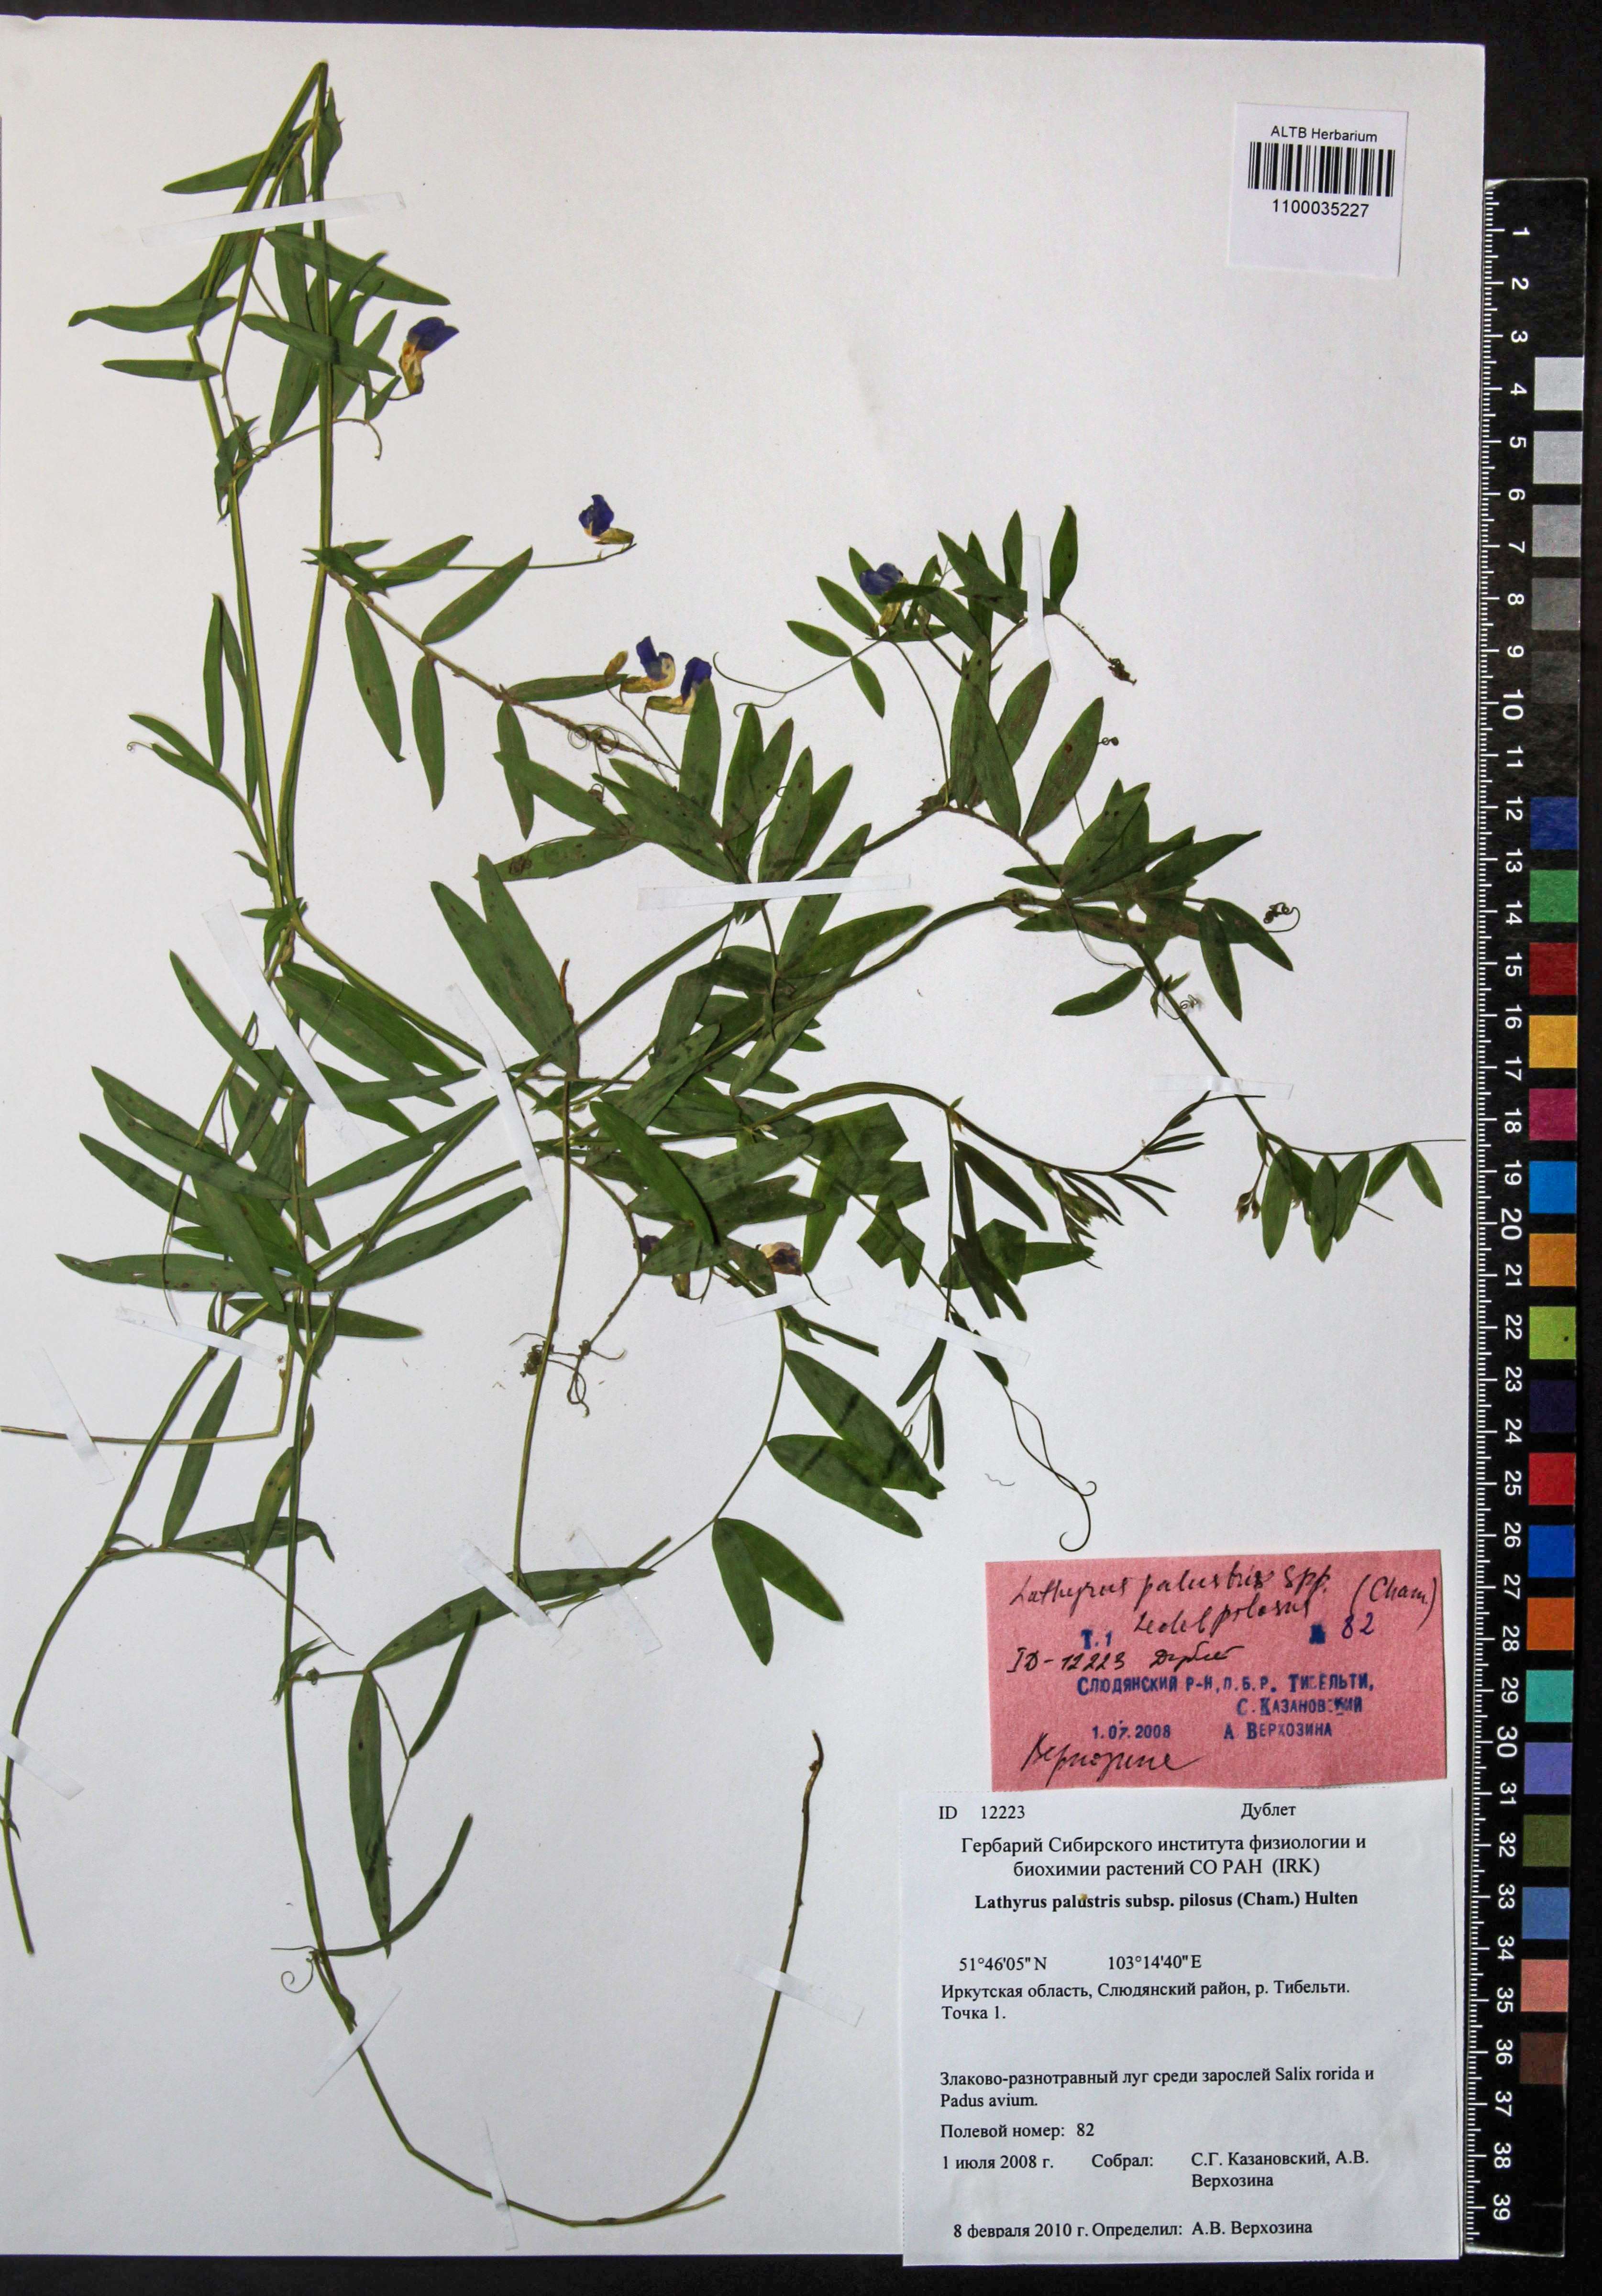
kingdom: Plantae
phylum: Tracheophyta
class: Magnoliopsida
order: Fabales
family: Fabaceae
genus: Lathyrus
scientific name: Lathyrus palustris
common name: Marsh pea
